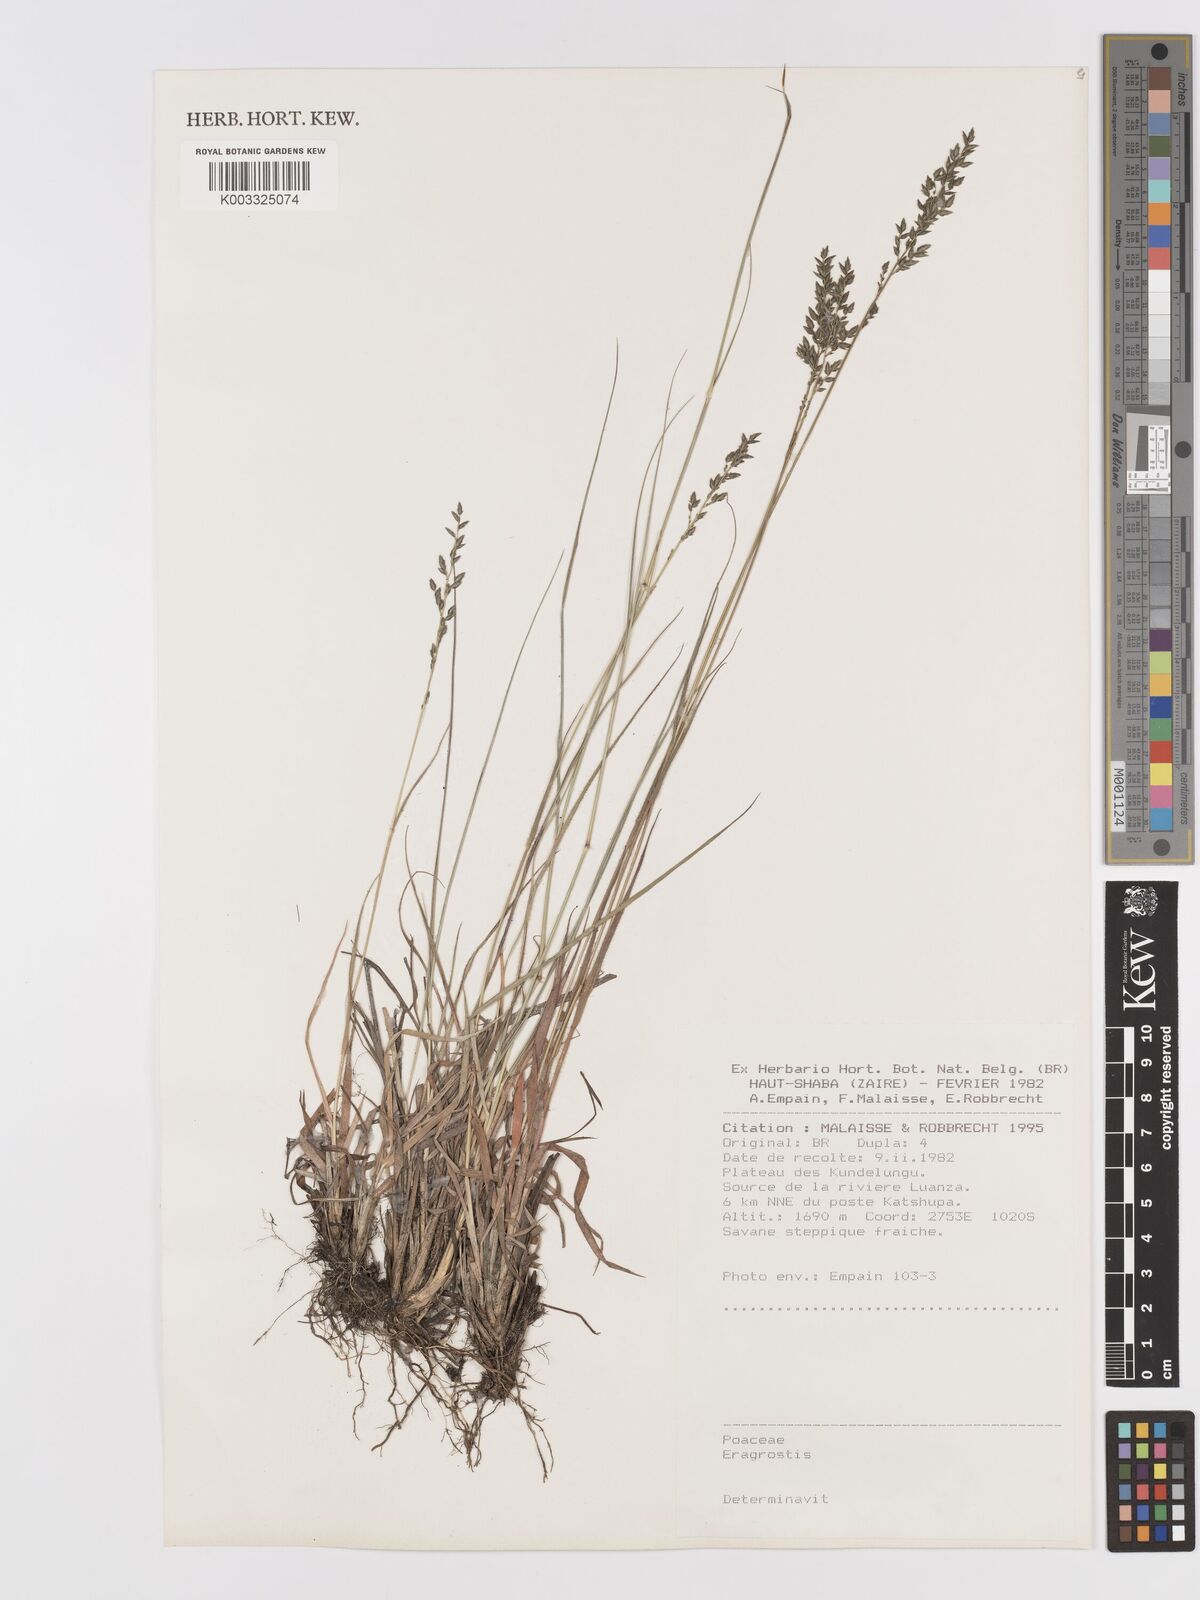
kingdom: Plantae
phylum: Tracheophyta
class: Liliopsida
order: Poales
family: Poaceae
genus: Eragrostis
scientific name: Eragrostis
